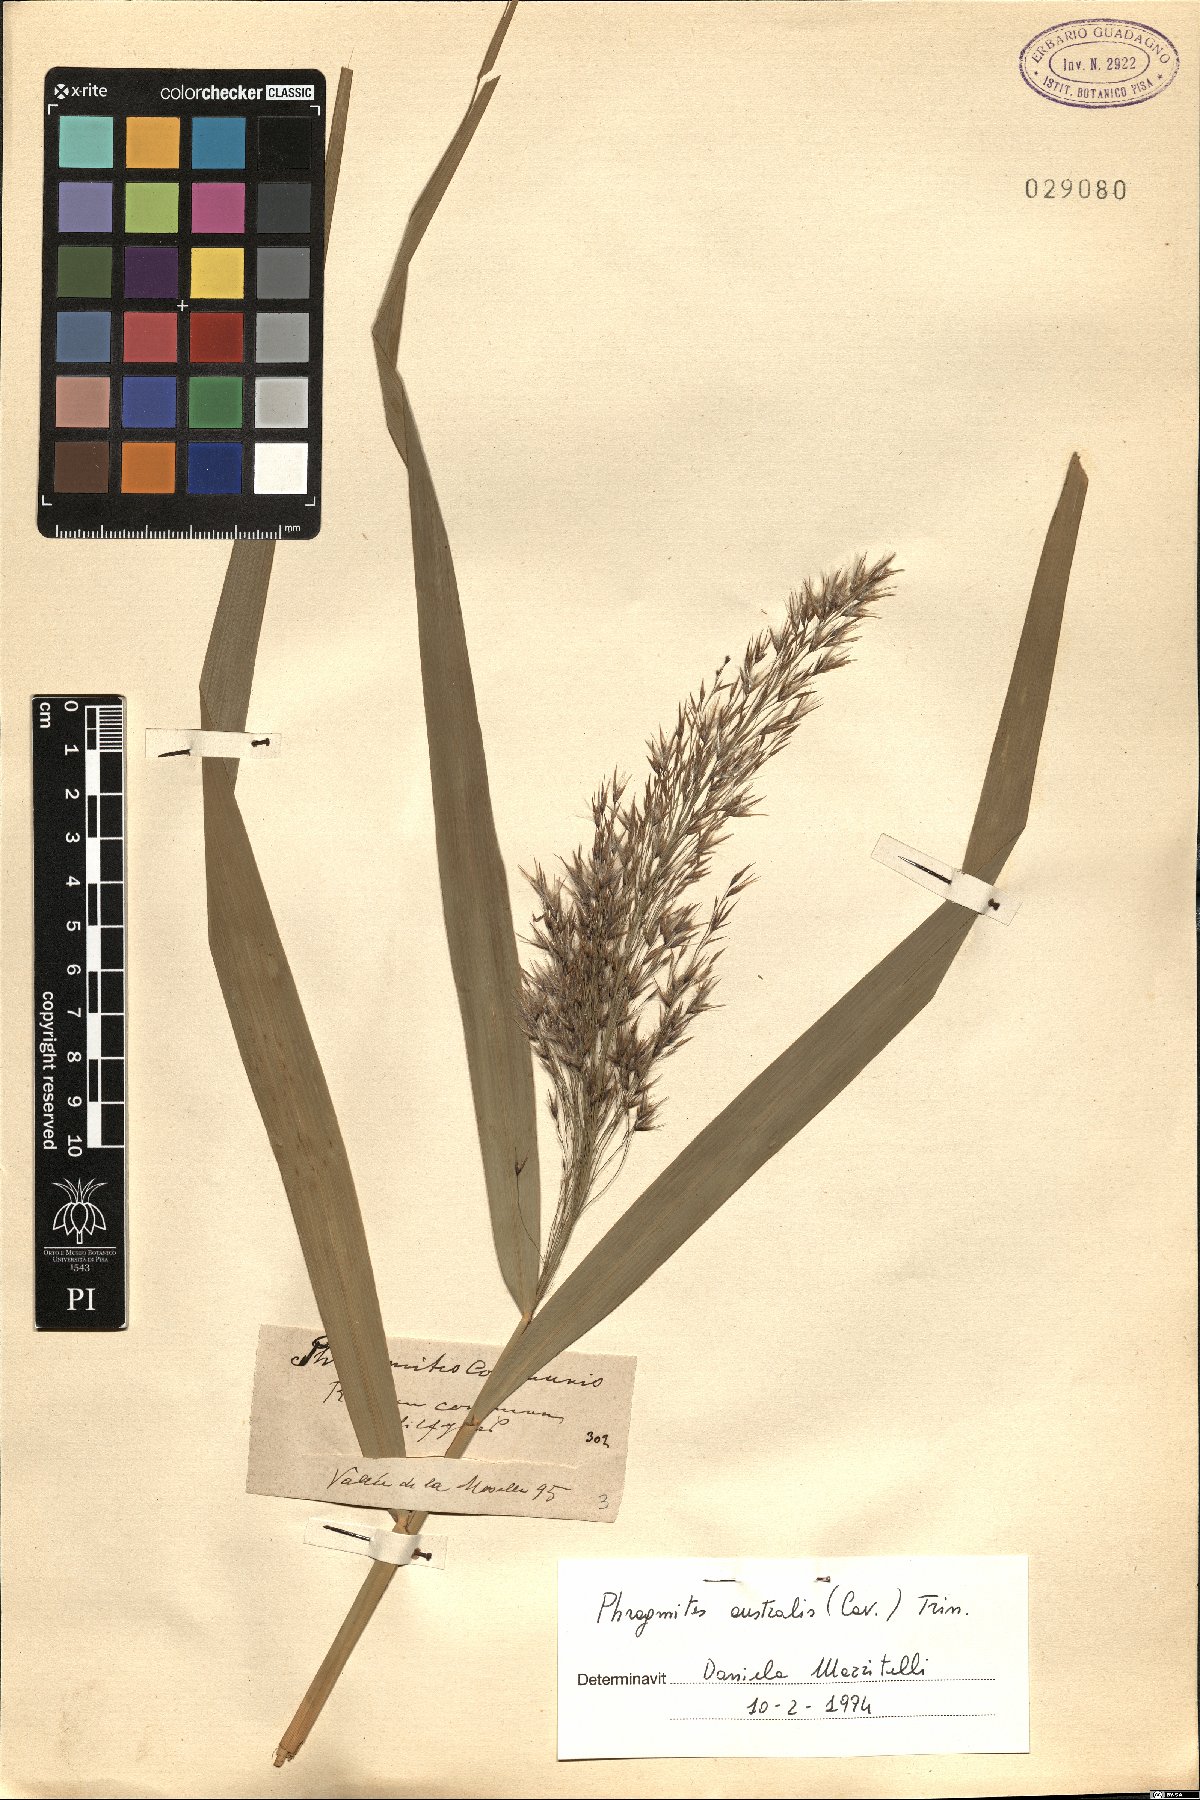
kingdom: Plantae
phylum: Tracheophyta
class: Liliopsida
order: Poales
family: Poaceae
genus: Phragmites
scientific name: Phragmites australis
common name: Common reed
